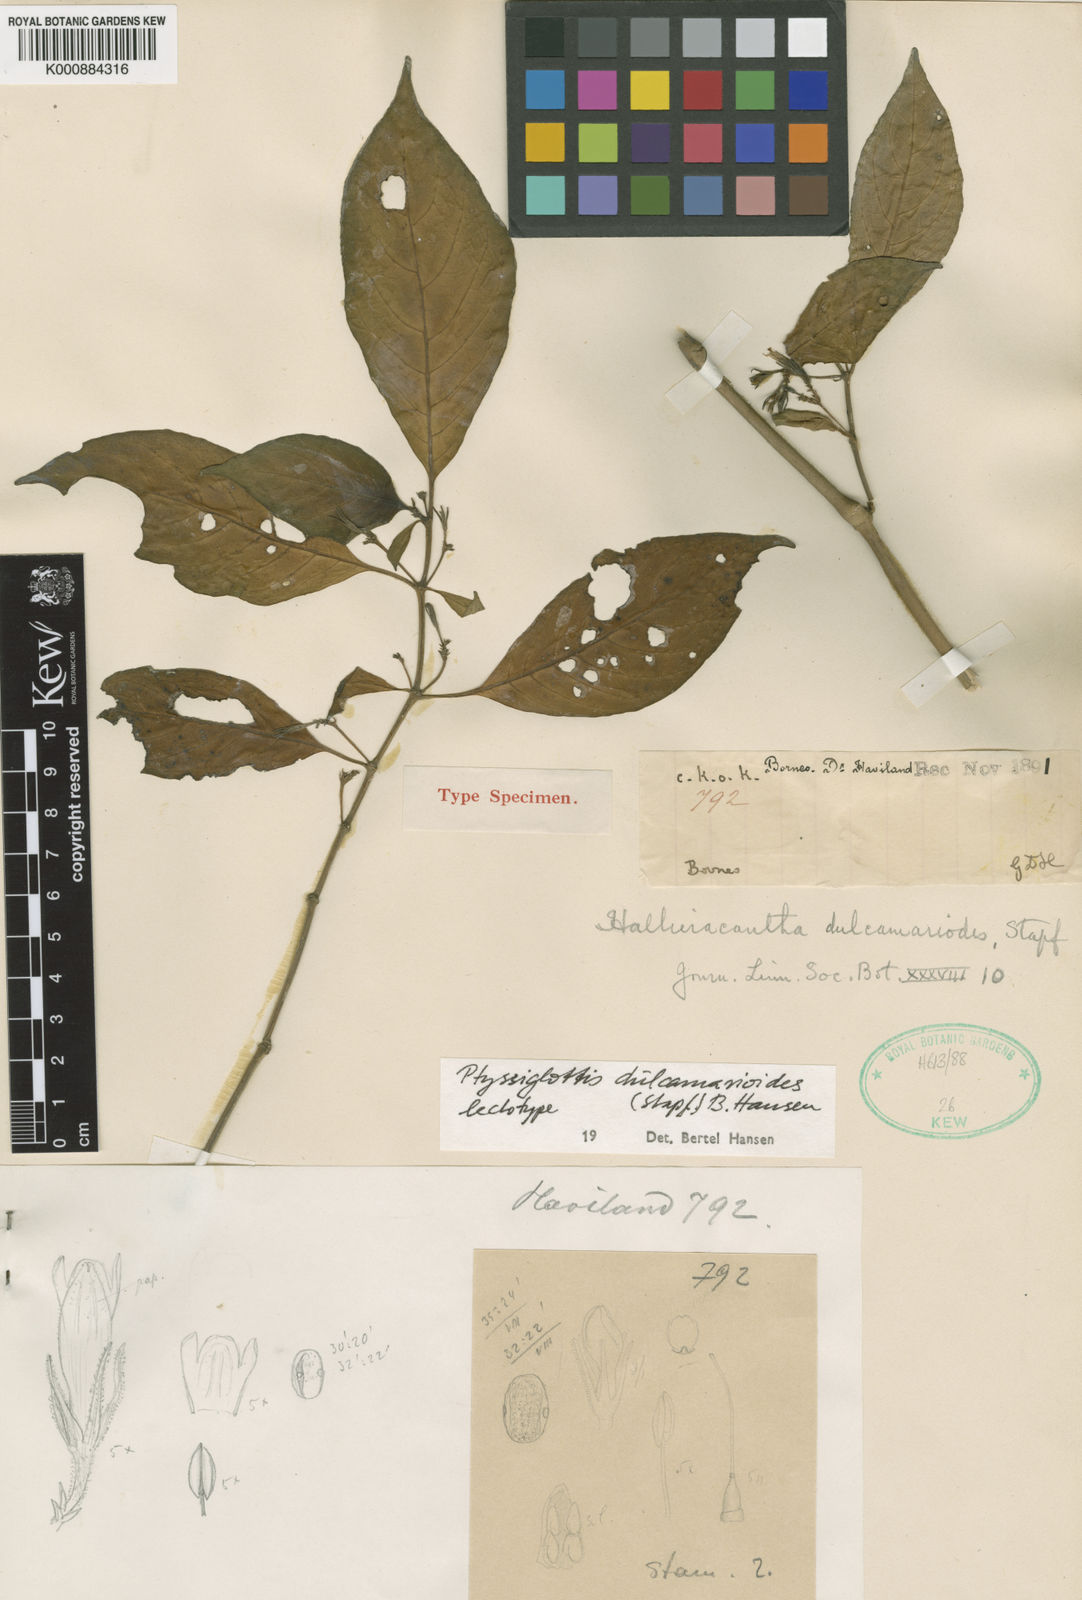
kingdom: Plantae
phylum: Tracheophyta
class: Magnoliopsida
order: Lamiales
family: Acanthaceae
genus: Ptyssiglottis
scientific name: Ptyssiglottis dulcamarioides
